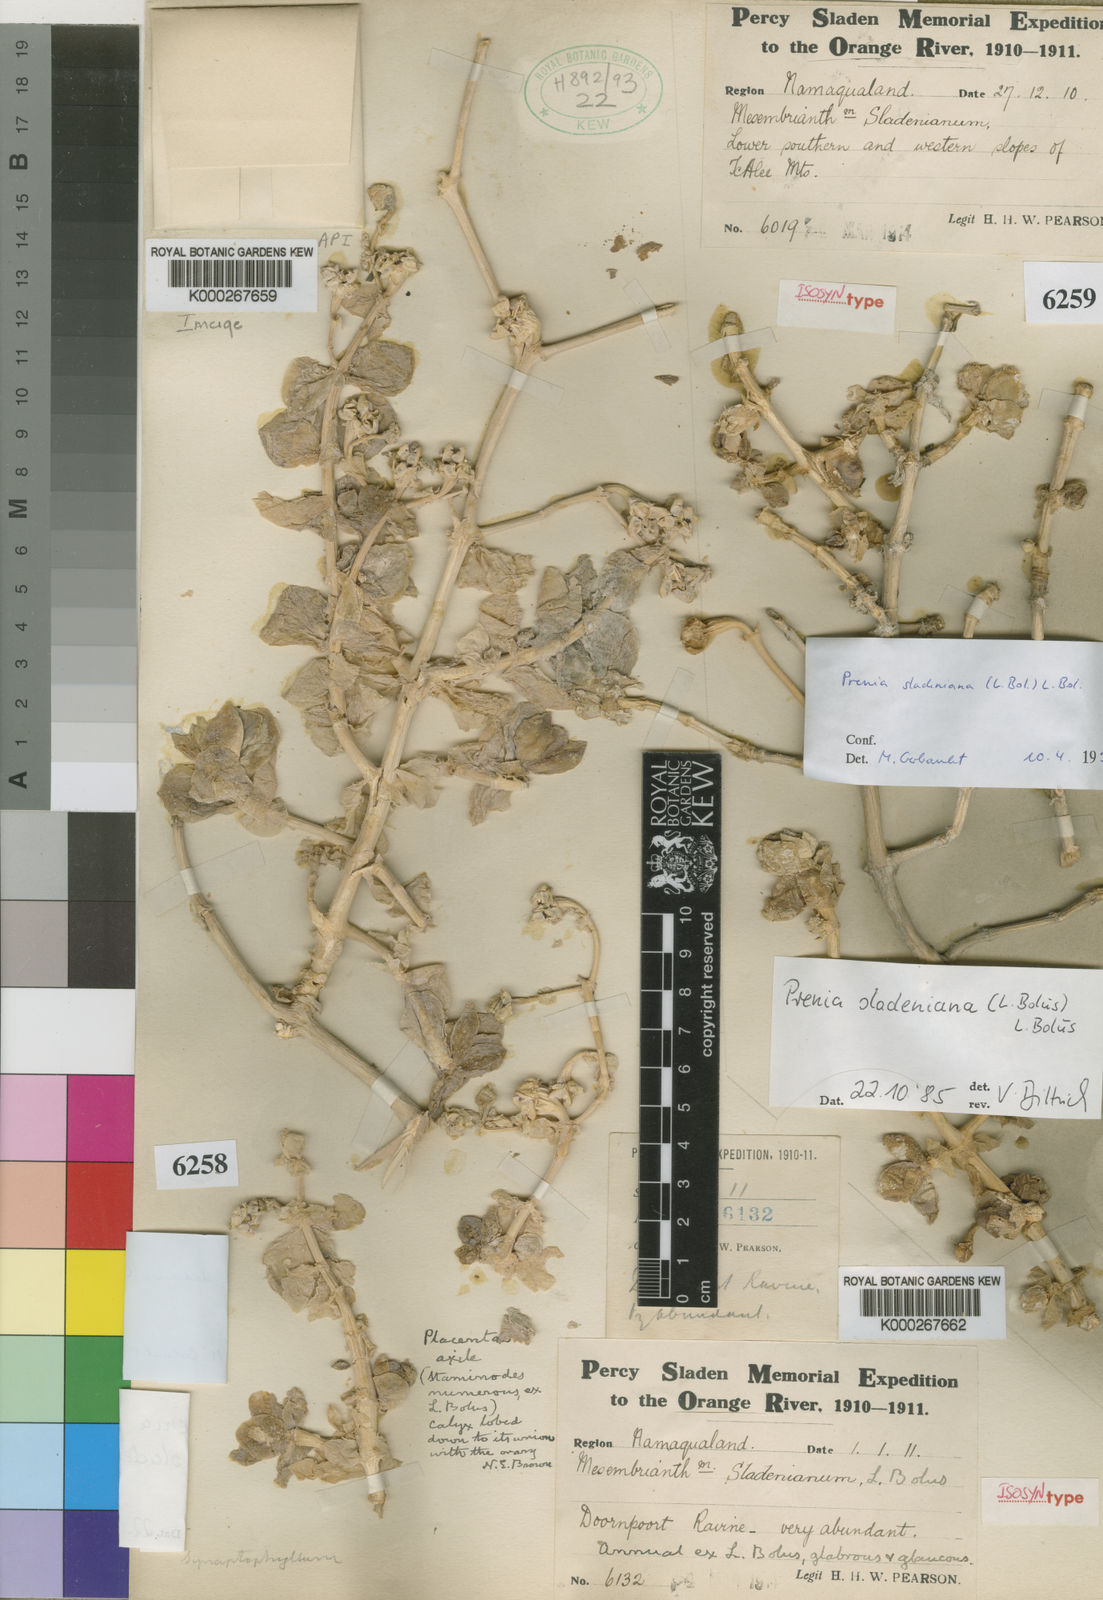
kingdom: Plantae
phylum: Tracheophyta
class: Magnoliopsida
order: Caryophyllales
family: Aizoaceae
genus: Mesembryanthemum
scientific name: Mesembryanthemum
